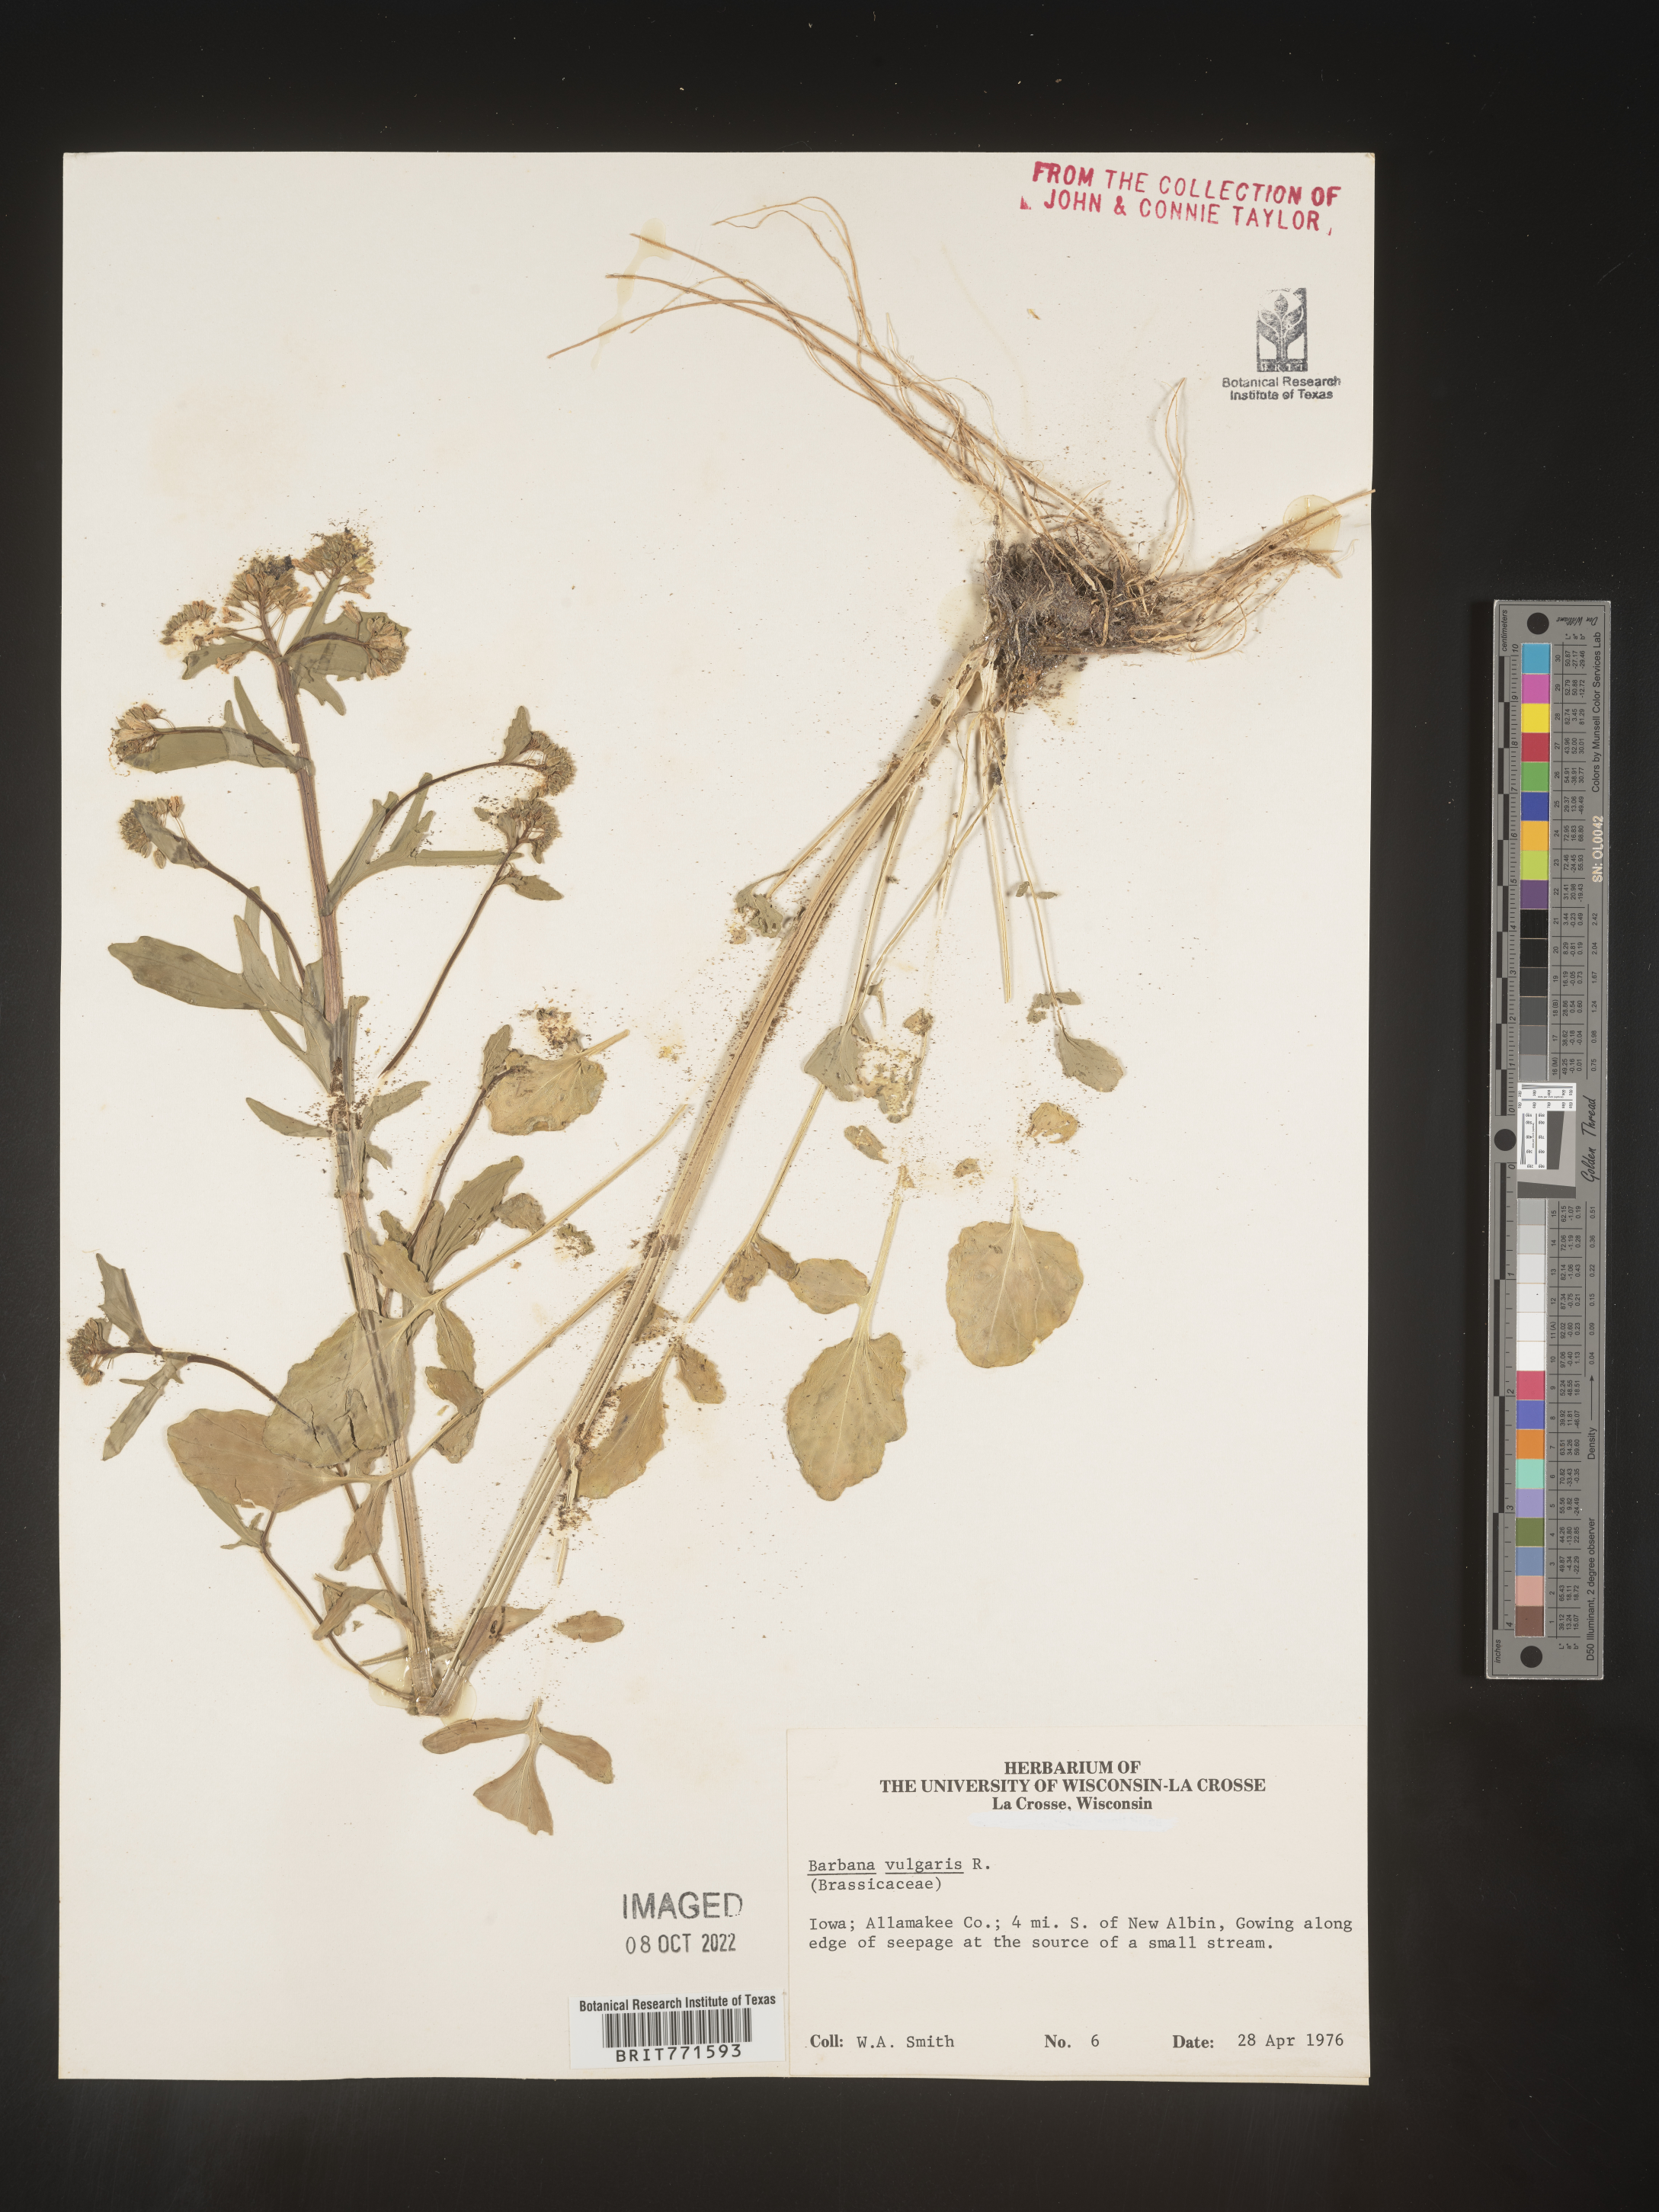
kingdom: Plantae
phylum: Tracheophyta
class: Magnoliopsida
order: Brassicales
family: Brassicaceae
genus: Barbarea
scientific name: Barbarea vulgaris
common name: Cressy-greens
